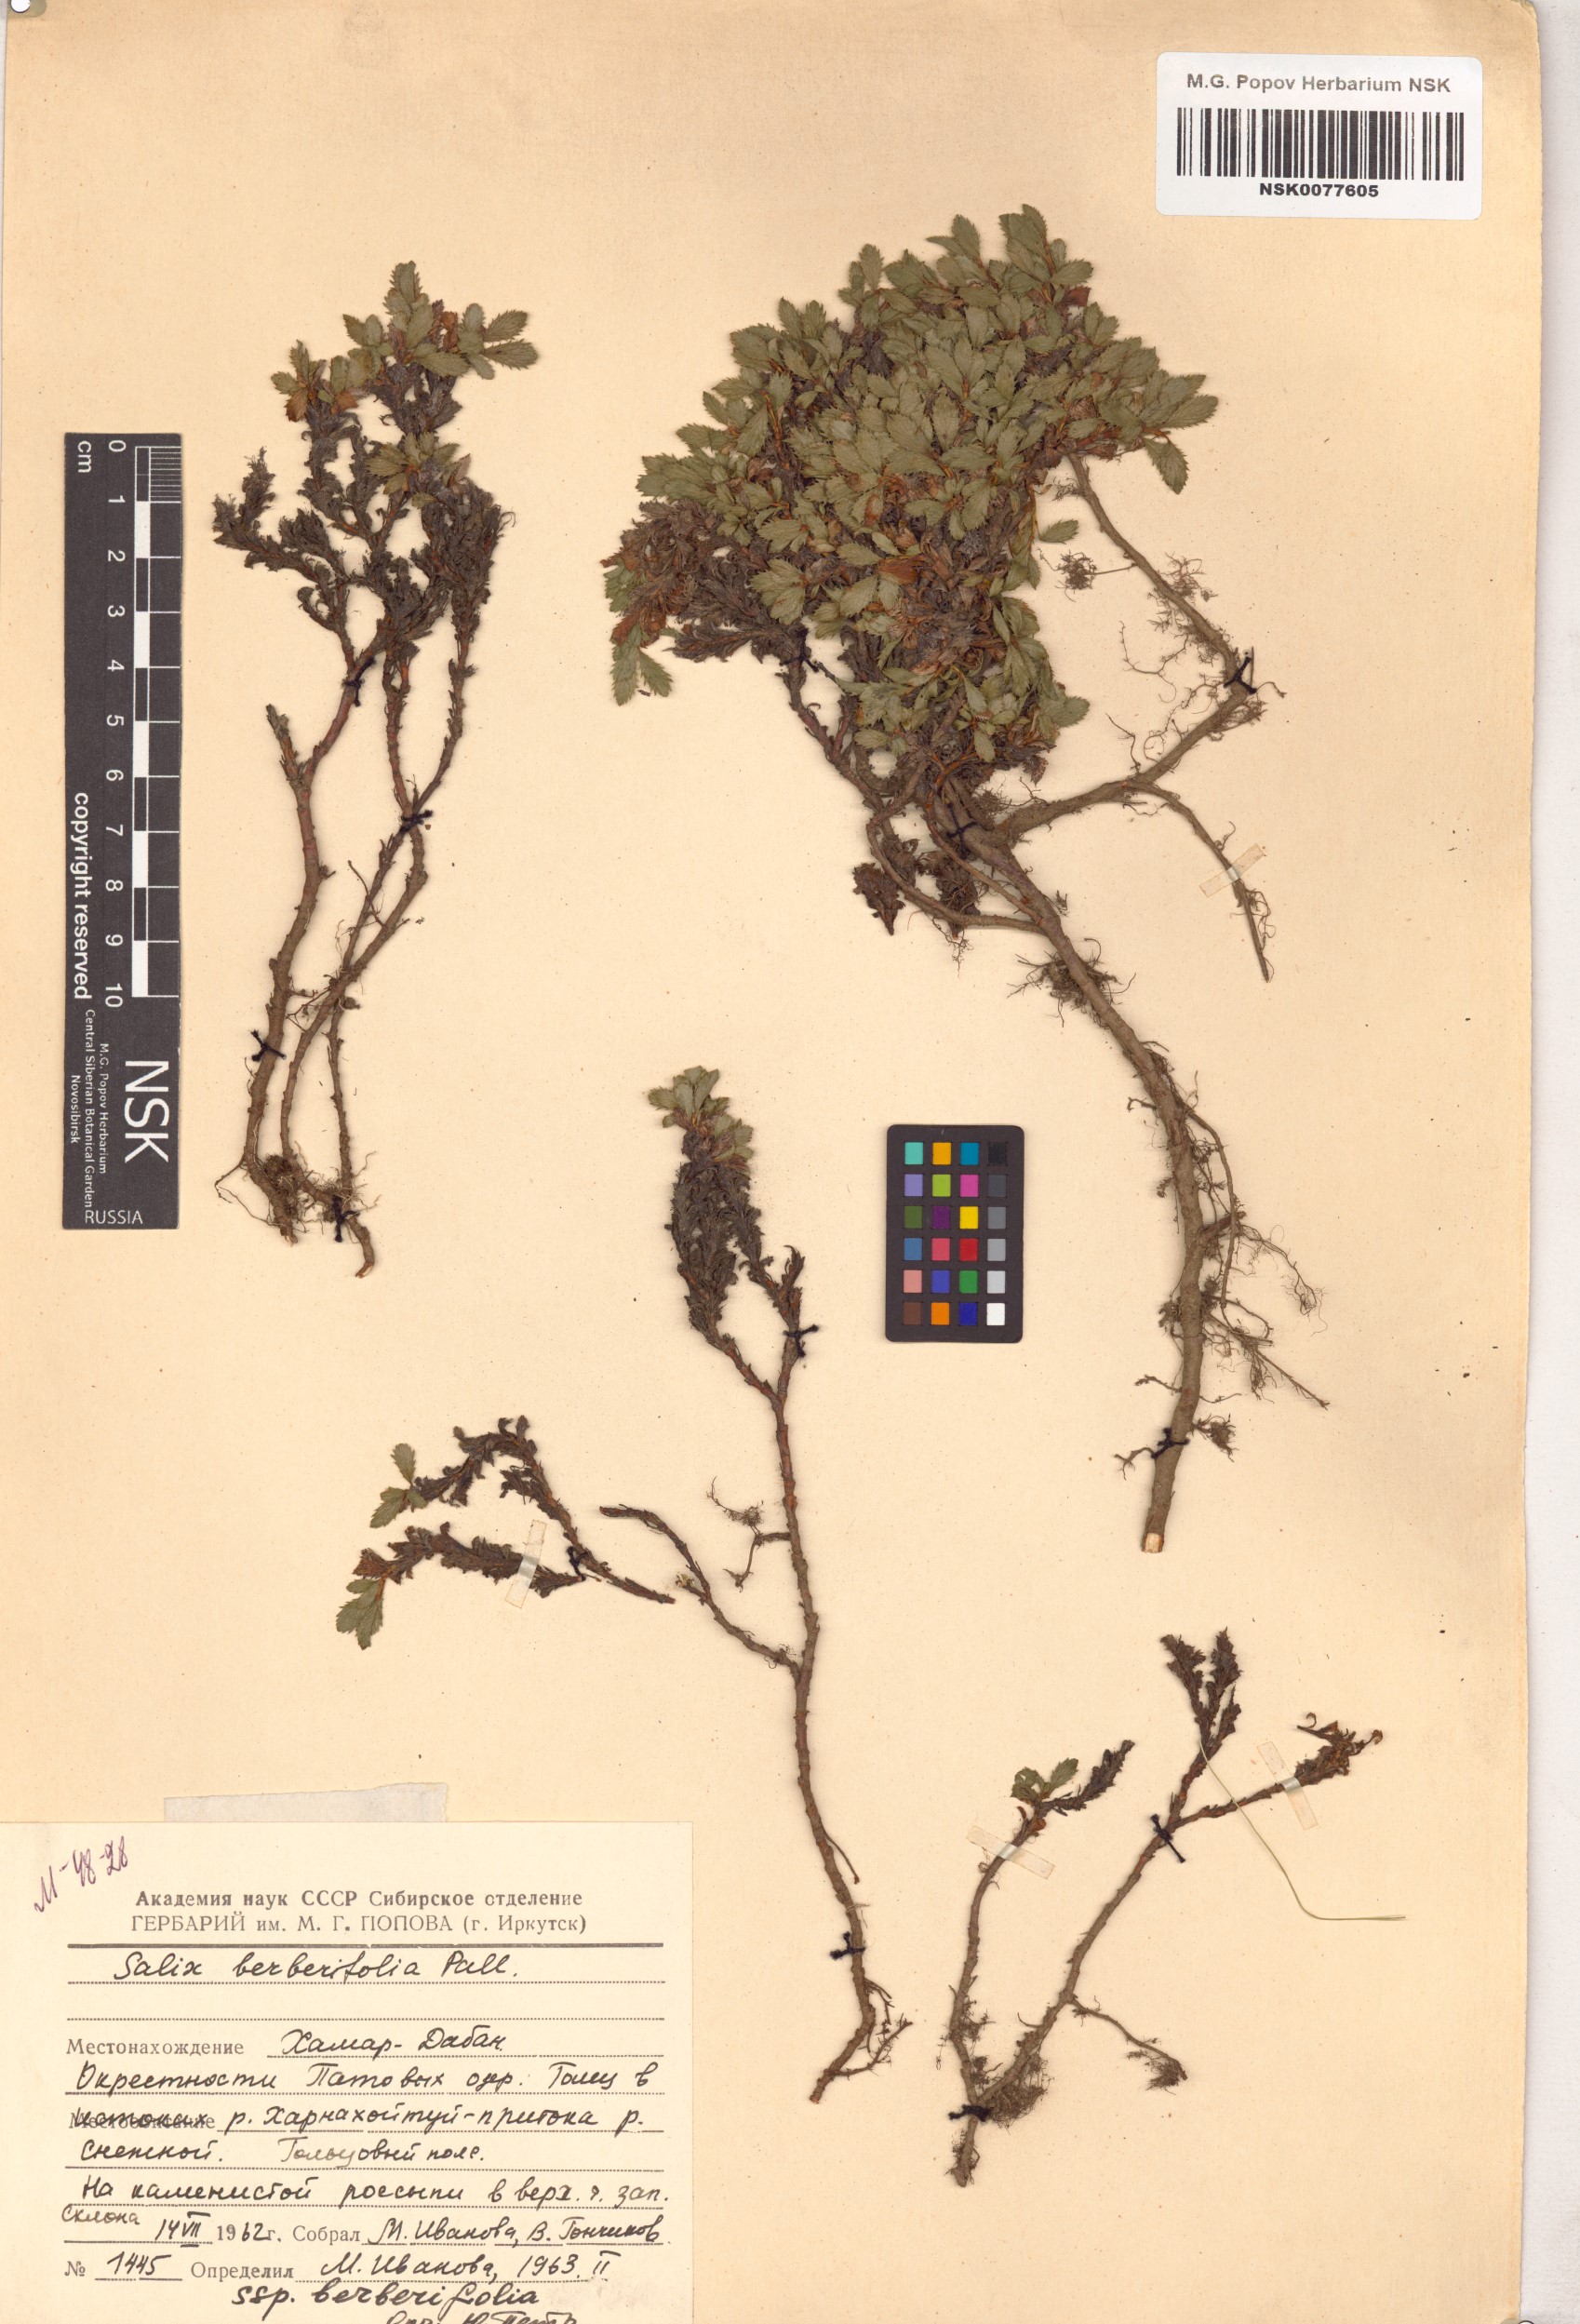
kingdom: Plantae
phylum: Tracheophyta
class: Magnoliopsida
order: Malpighiales
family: Salicaceae
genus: Salix
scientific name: Salix berberifolia
